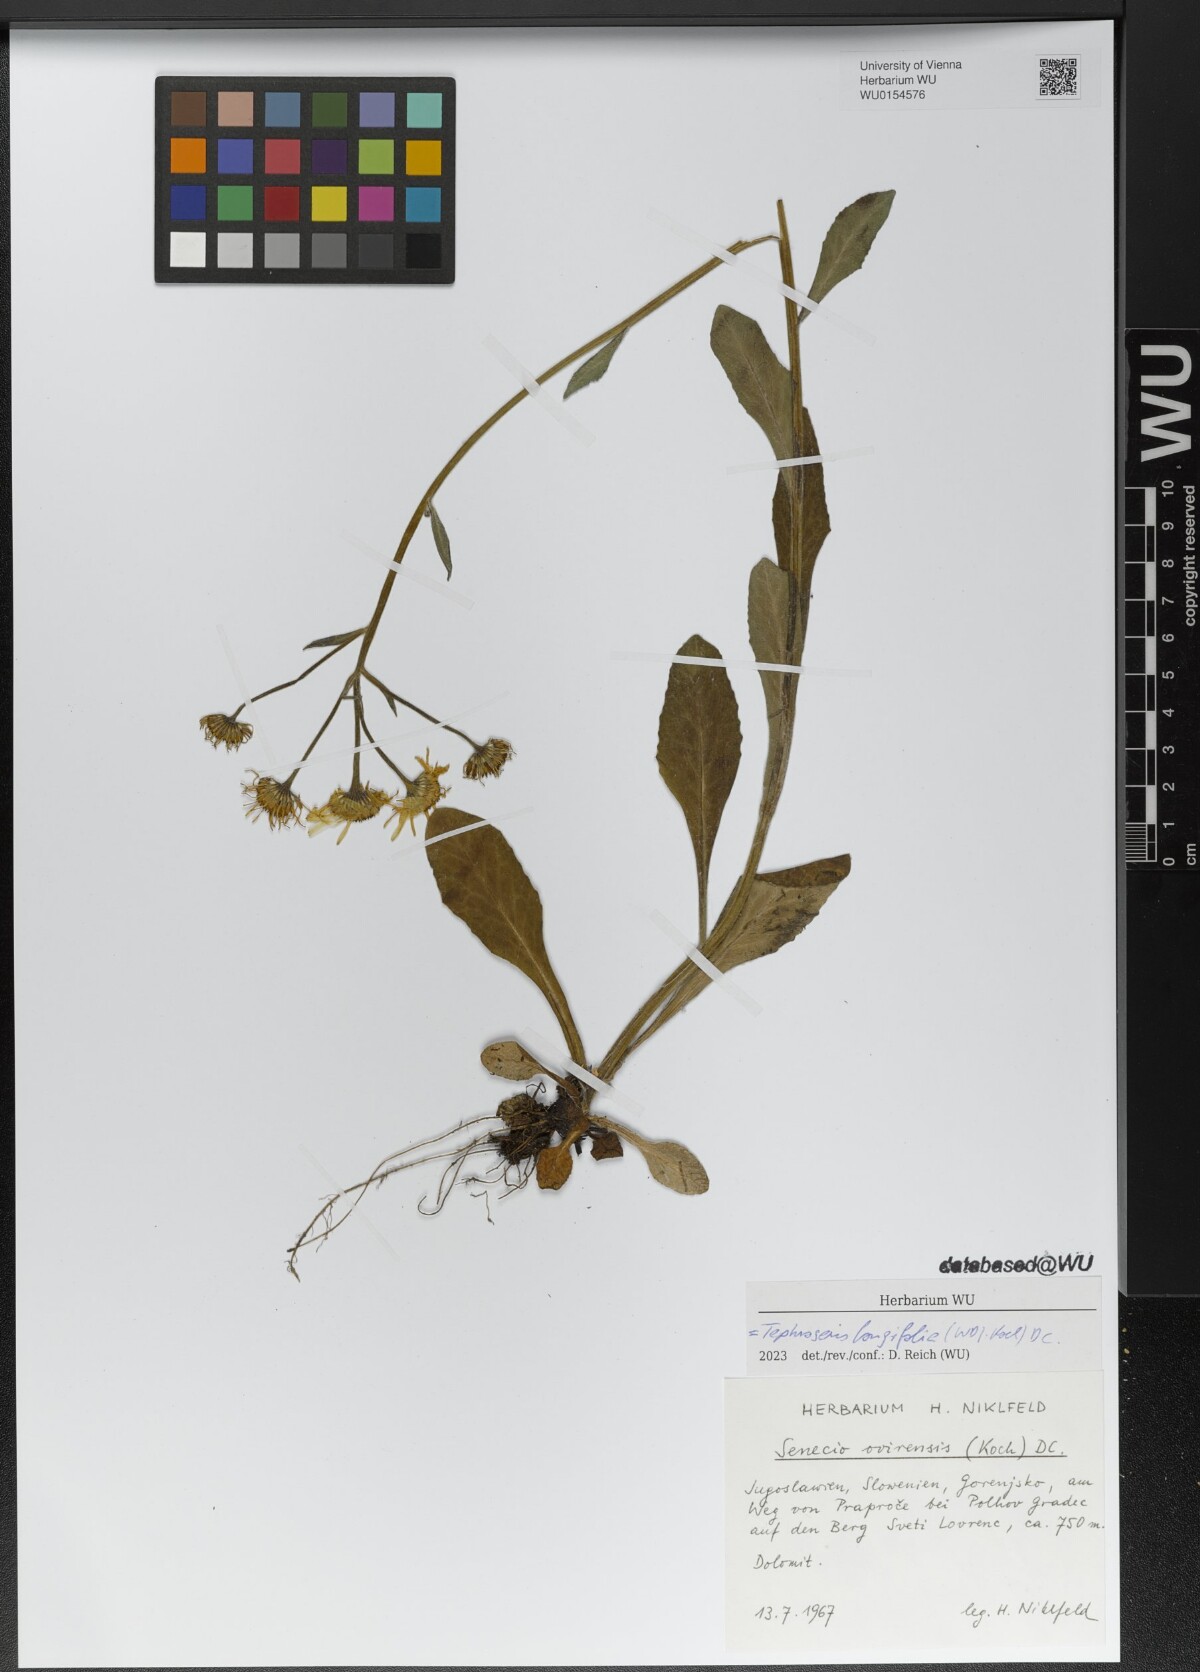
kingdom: Plantae
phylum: Tracheophyta
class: Magnoliopsida
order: Asterales
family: Asteraceae
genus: Tephroseris
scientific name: Tephroseris longifolia
